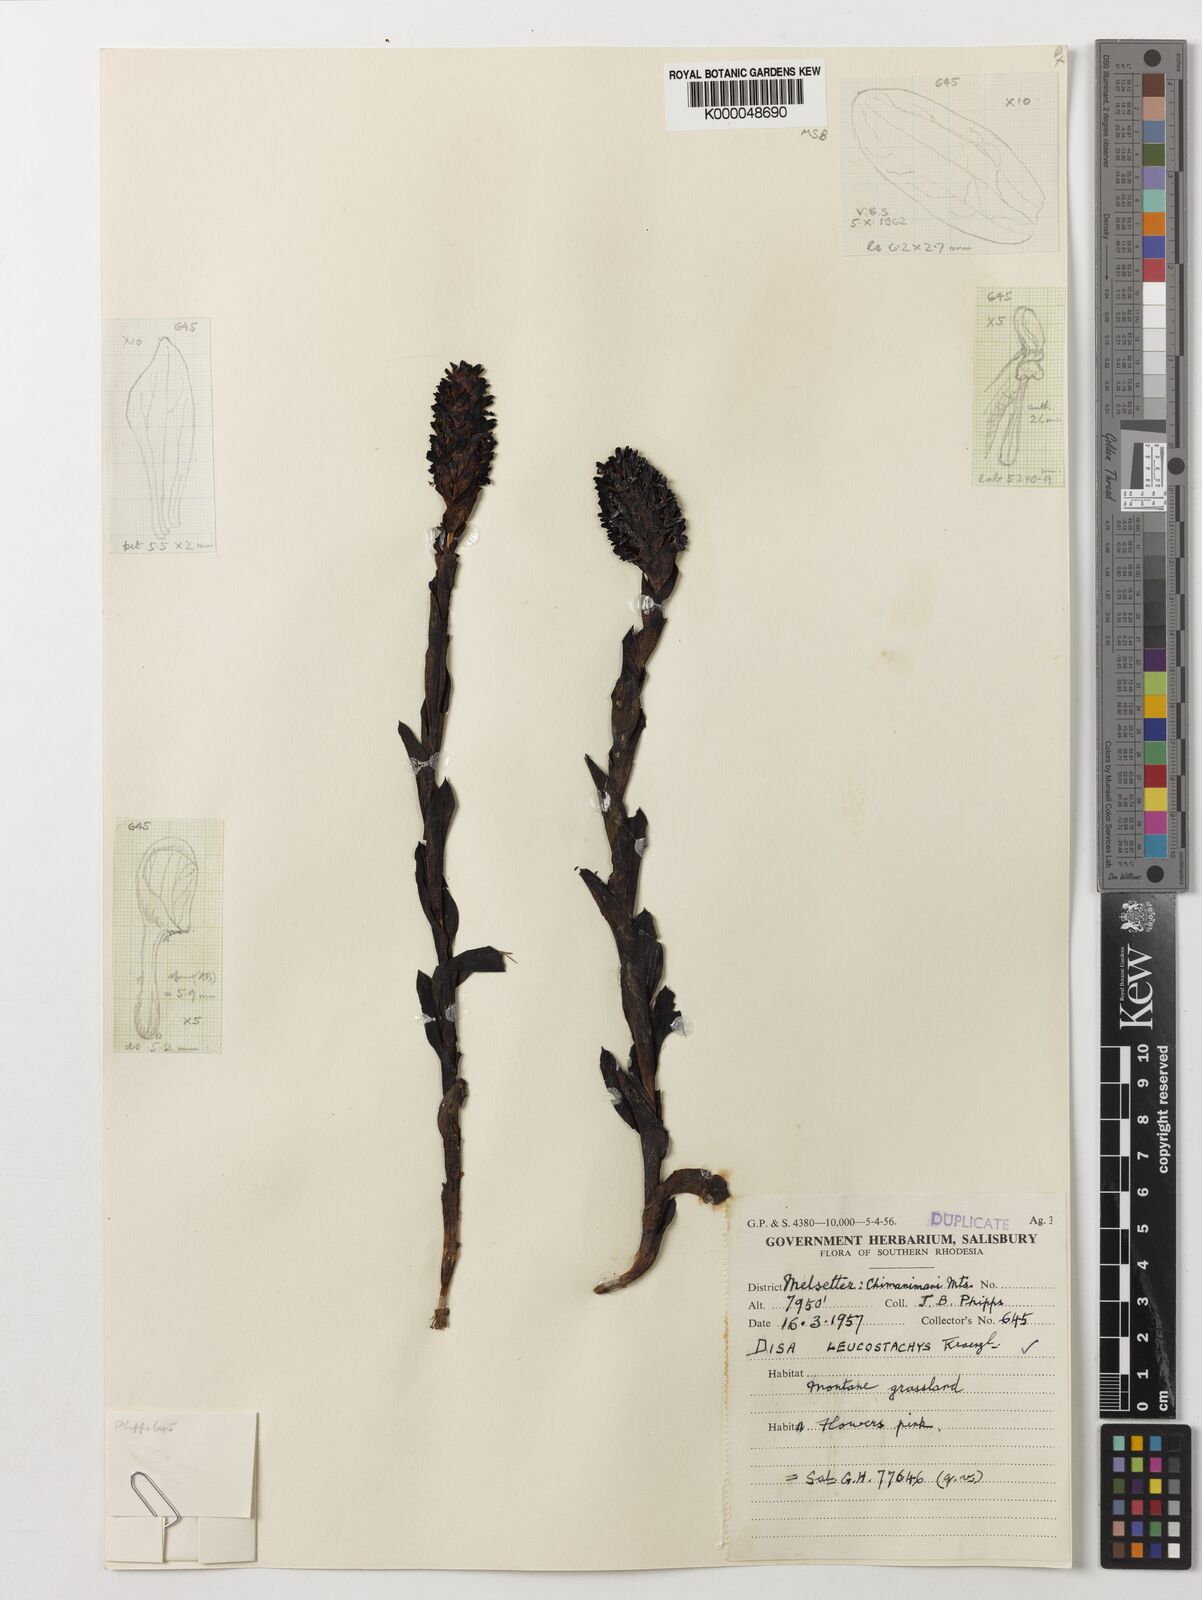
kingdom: Plantae
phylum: Tracheophyta
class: Liliopsida
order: Asparagales
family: Orchidaceae
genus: Disa
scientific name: Disa fragrans
